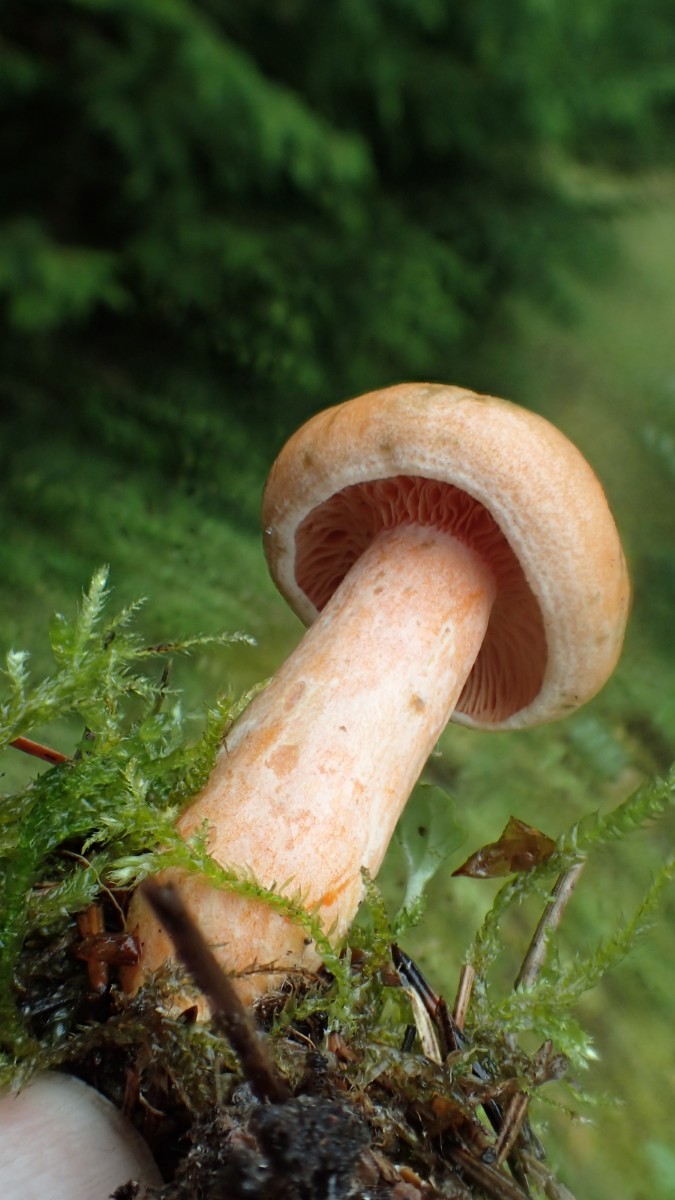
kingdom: Fungi
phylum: Basidiomycota
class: Agaricomycetes
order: Russulales
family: Russulaceae
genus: Lactarius
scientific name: Lactarius deterrimus
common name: gran-mælkehat
